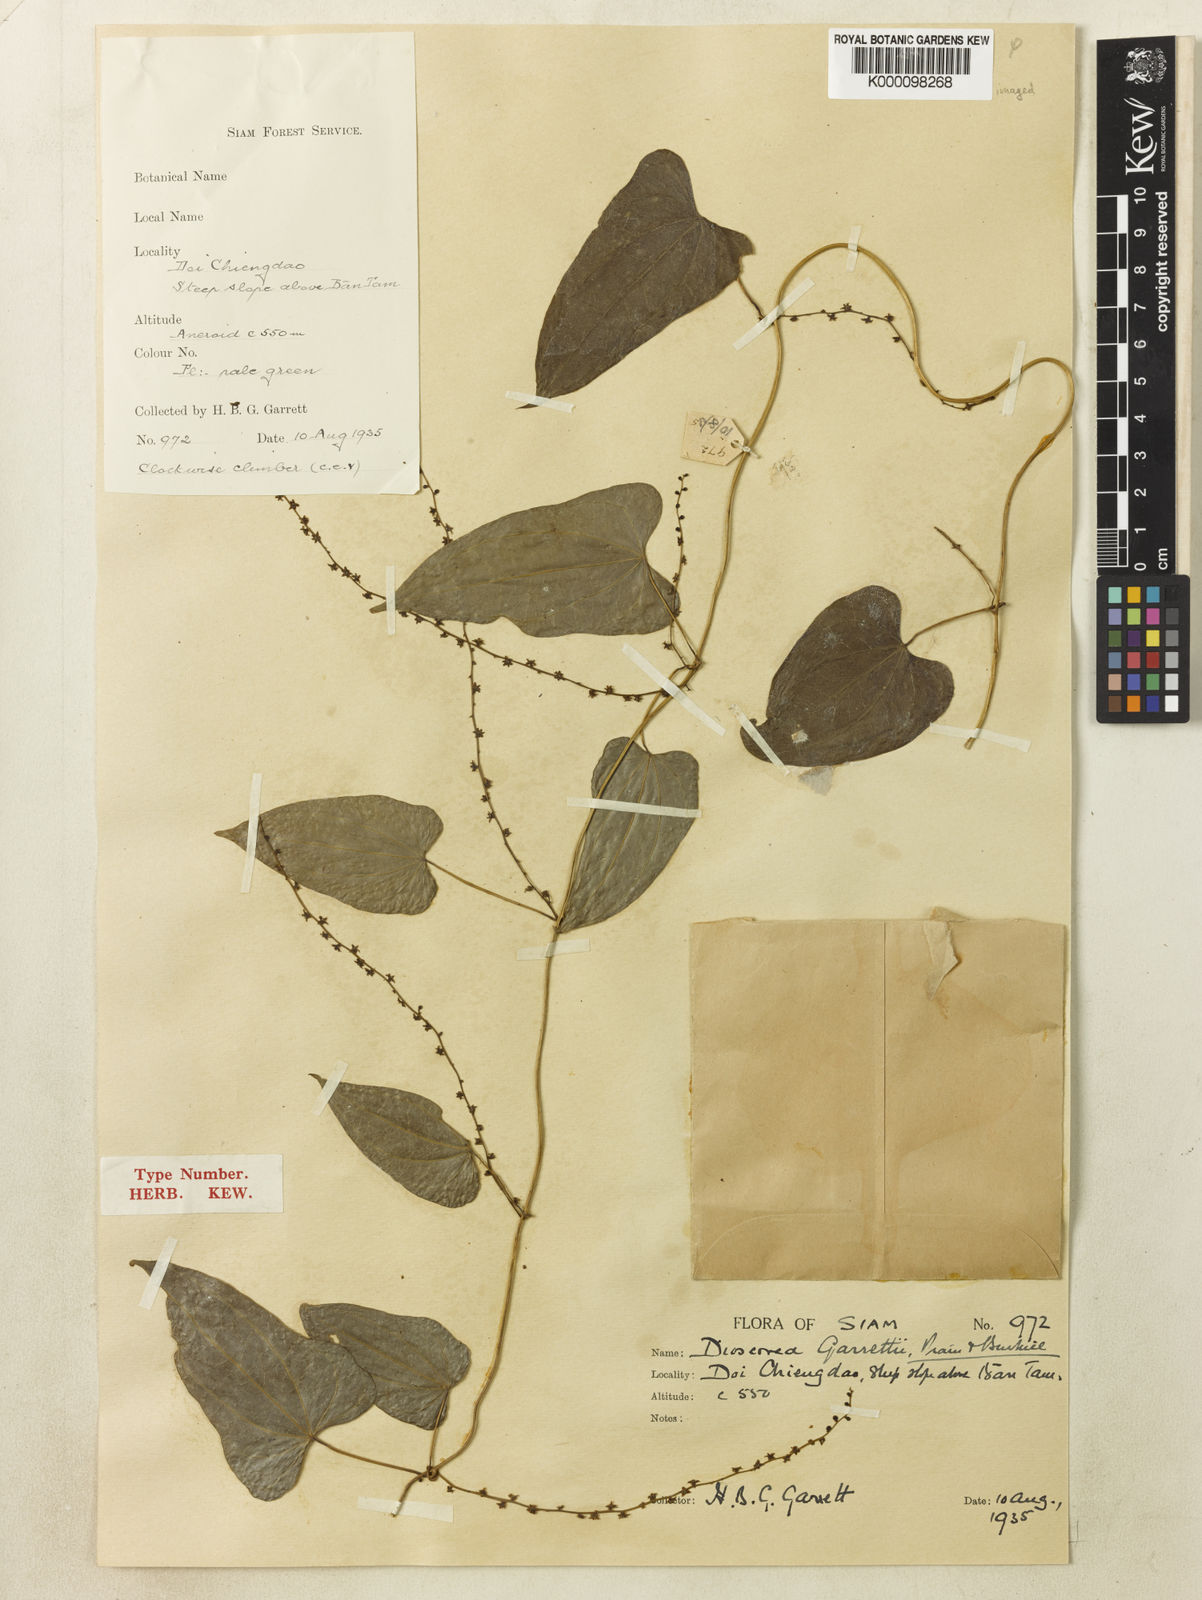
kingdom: Plantae
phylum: Tracheophyta
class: Liliopsida
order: Dioscoreales
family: Dioscoreaceae
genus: Dioscorea
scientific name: Dioscorea garrettii
